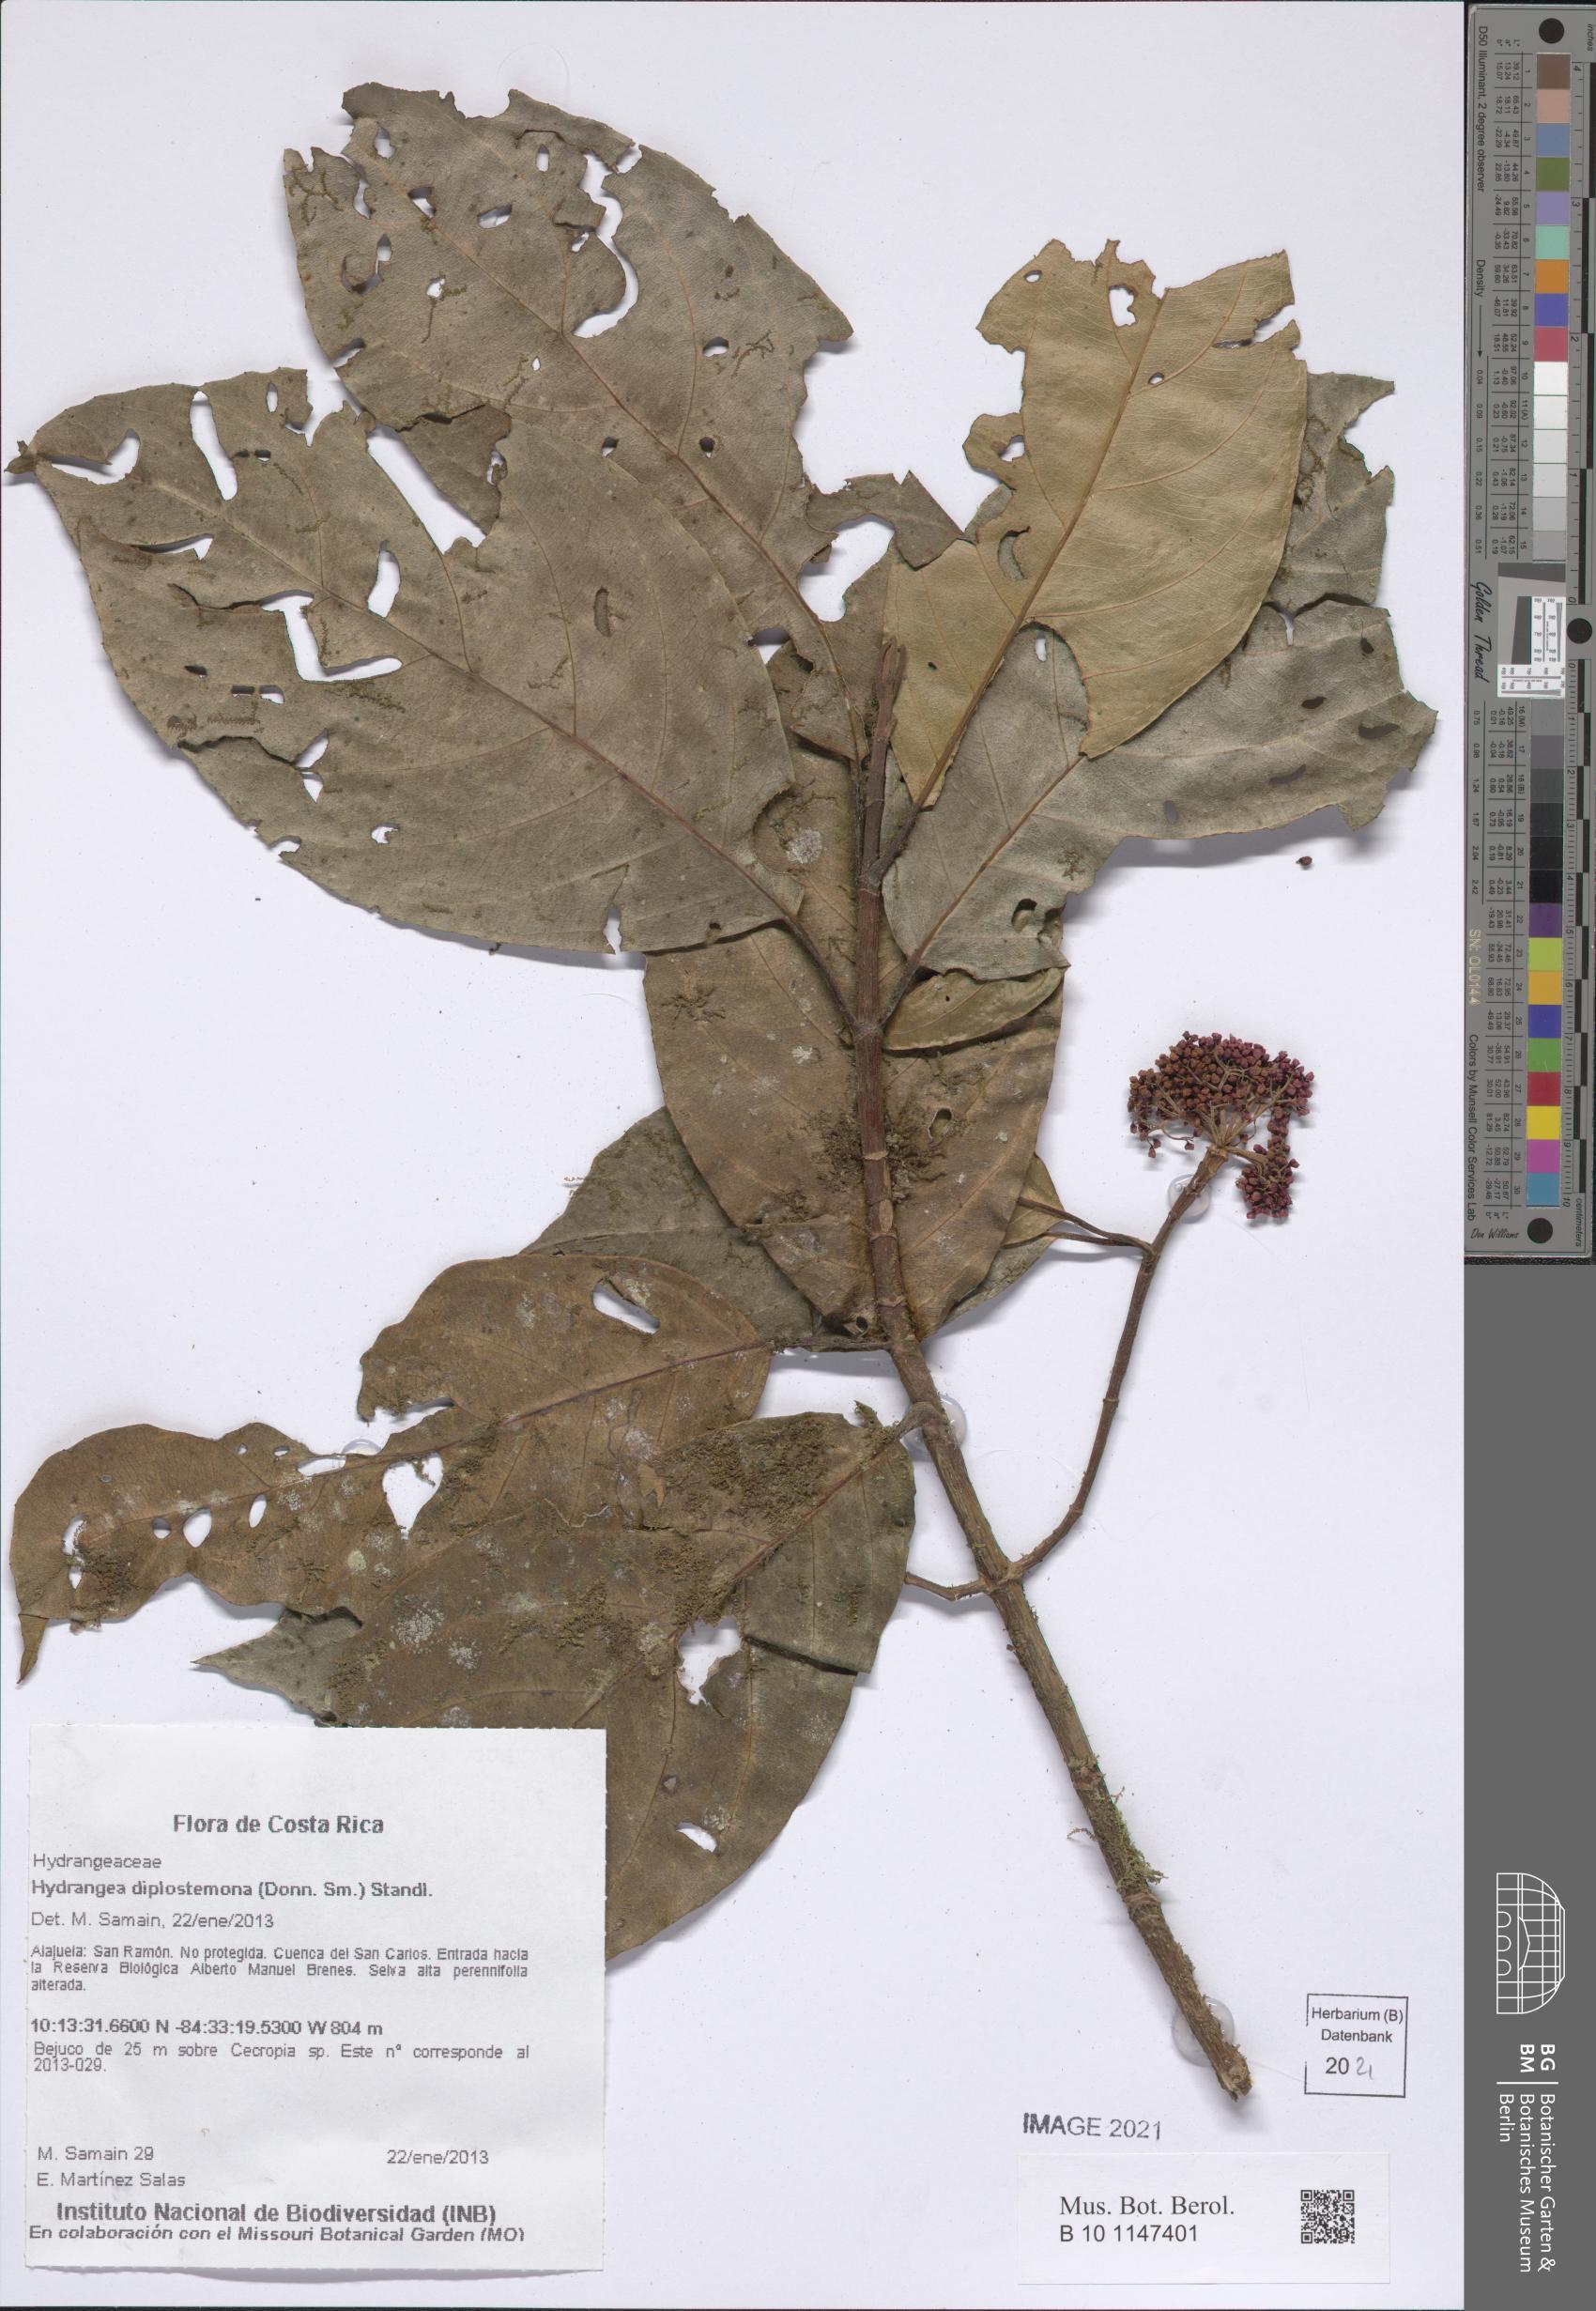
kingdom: Plantae
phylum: Tracheophyta
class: Magnoliopsida
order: Cornales
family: Hydrangeaceae
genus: Hydrangea
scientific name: Hydrangea diplostemona
